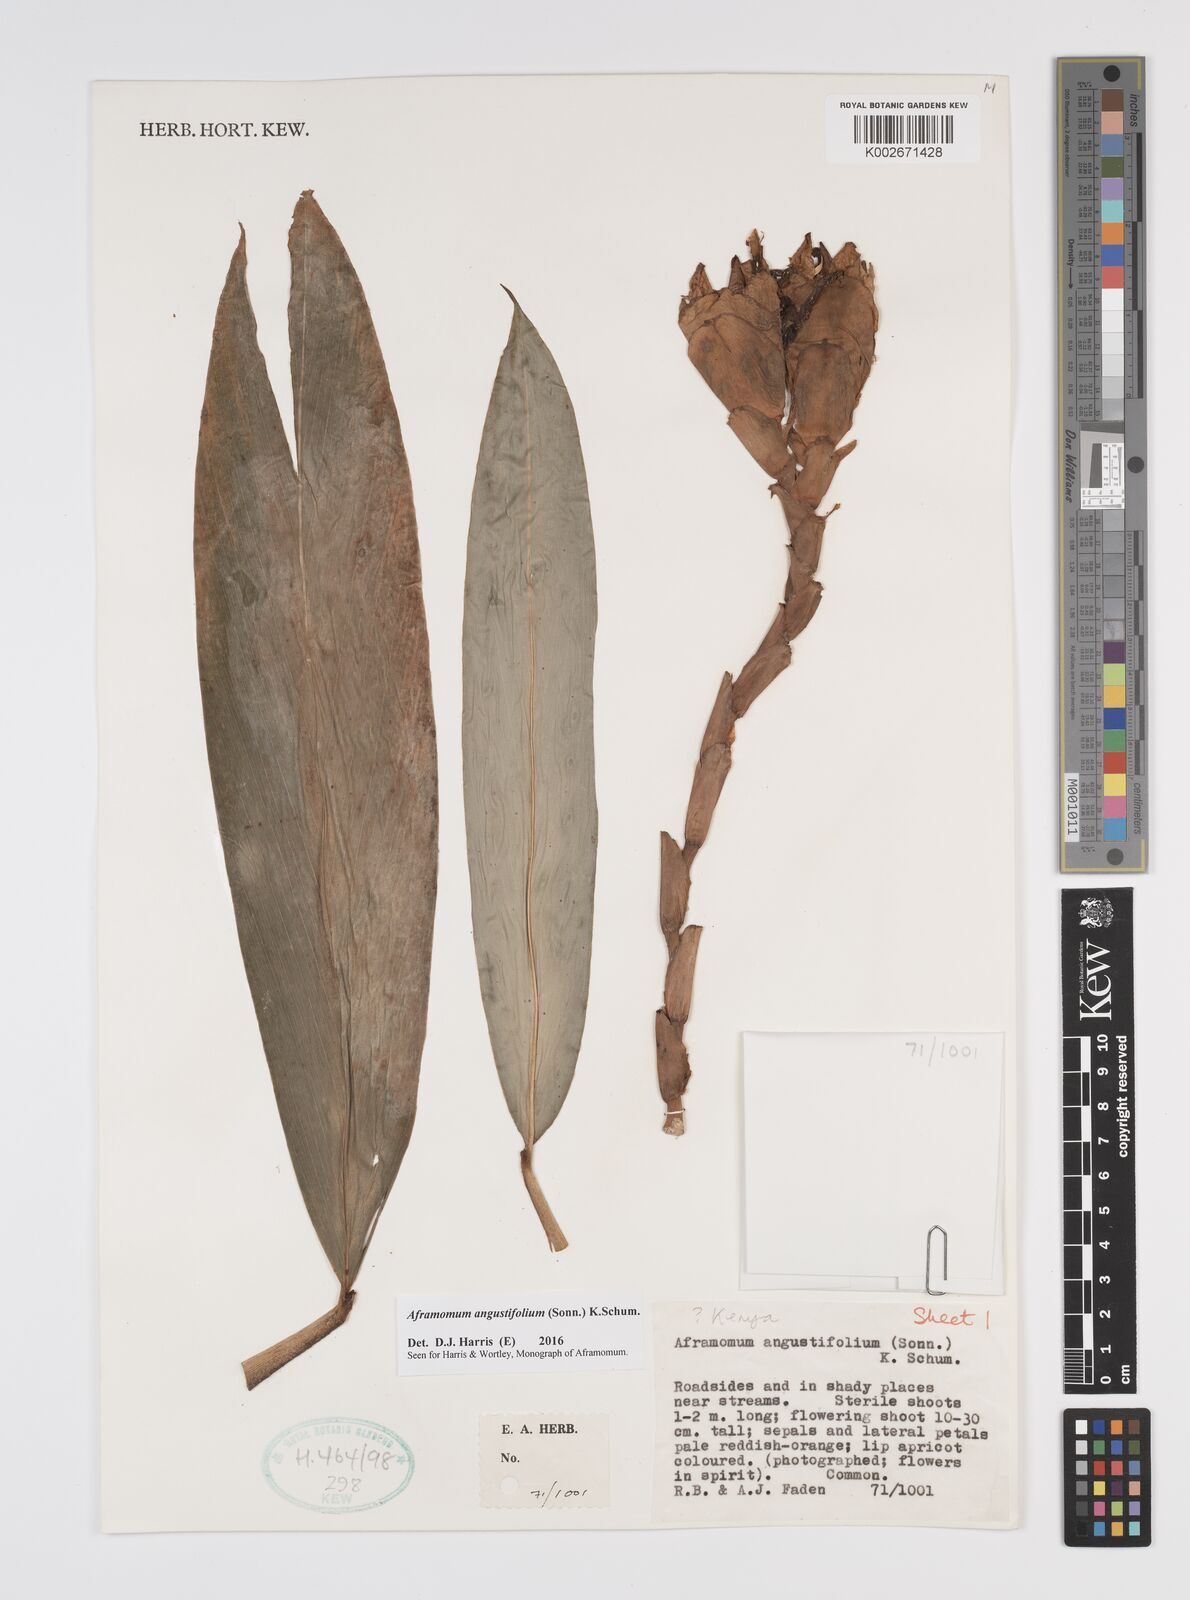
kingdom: Plantae
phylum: Tracheophyta
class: Liliopsida
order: Zingiberales
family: Zingiberaceae
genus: Aframomum
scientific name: Aframomum angustifolium
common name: Guinea grains
